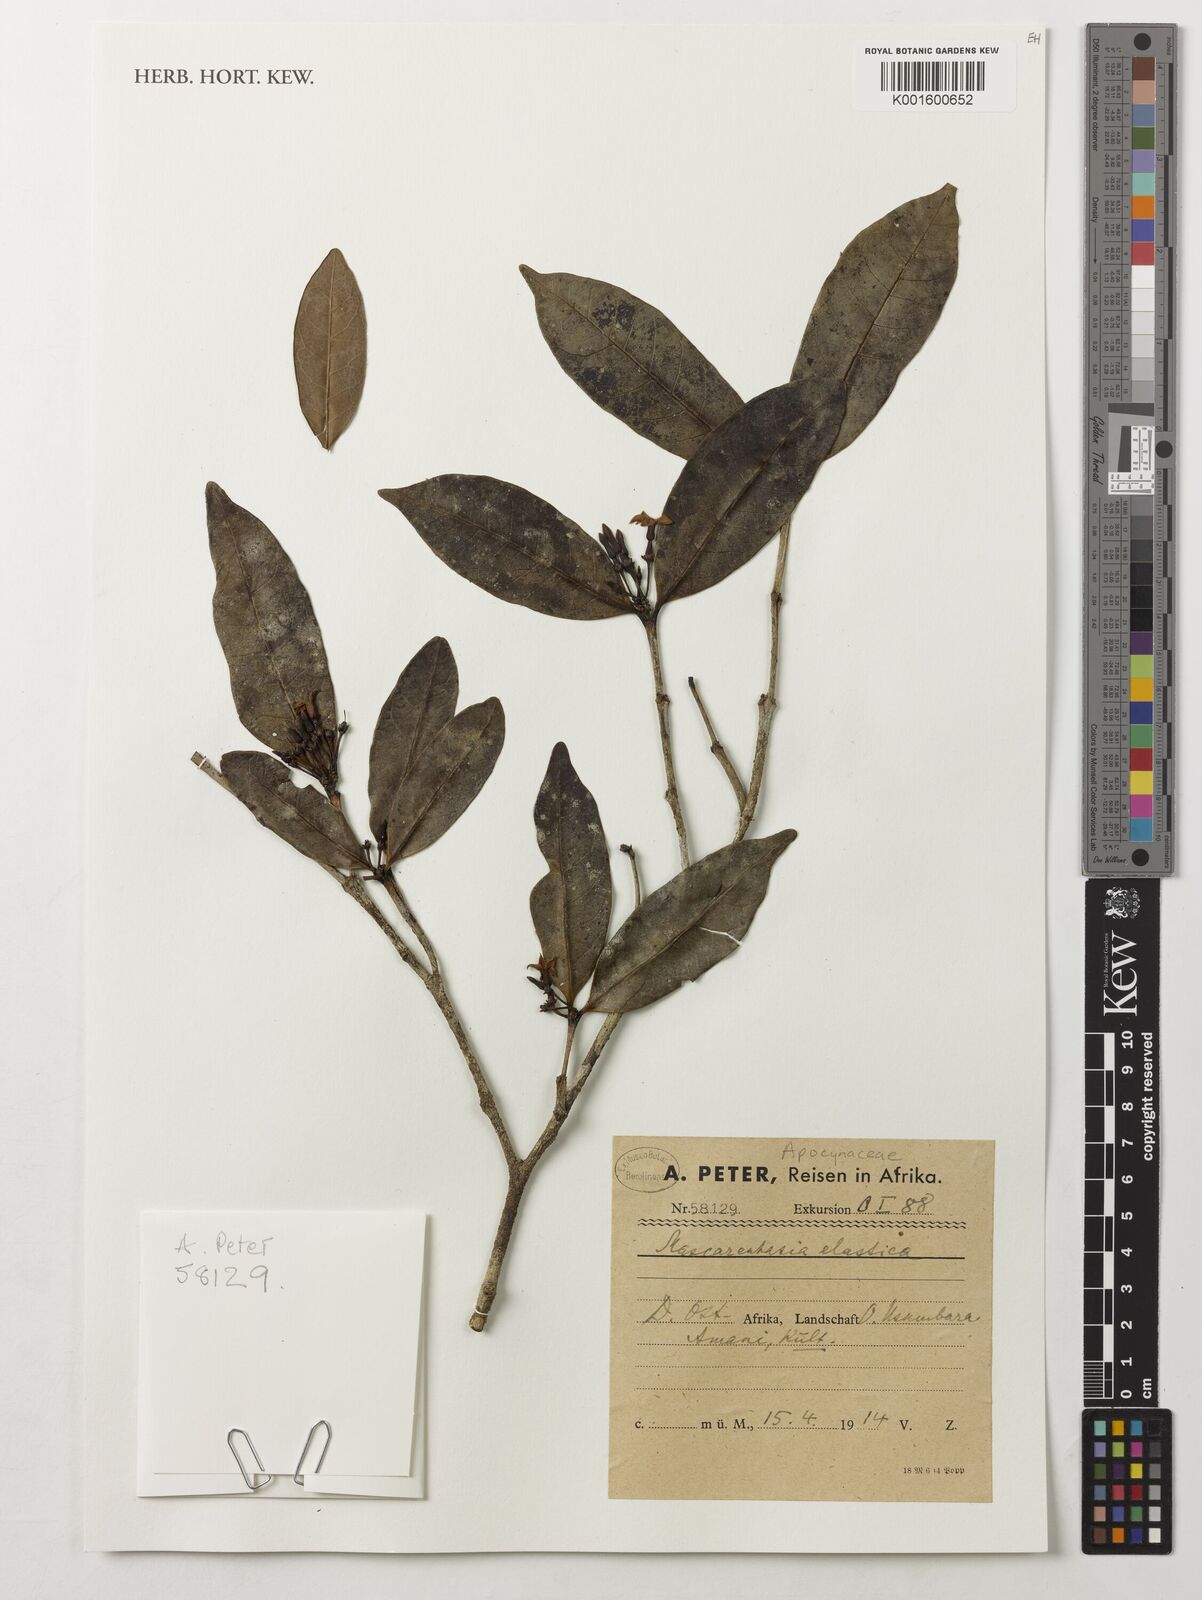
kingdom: Plantae
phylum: Tracheophyta
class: Magnoliopsida
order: Gentianales
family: Apocynaceae
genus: Mascarenhasia
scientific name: Mascarenhasia arborescens
